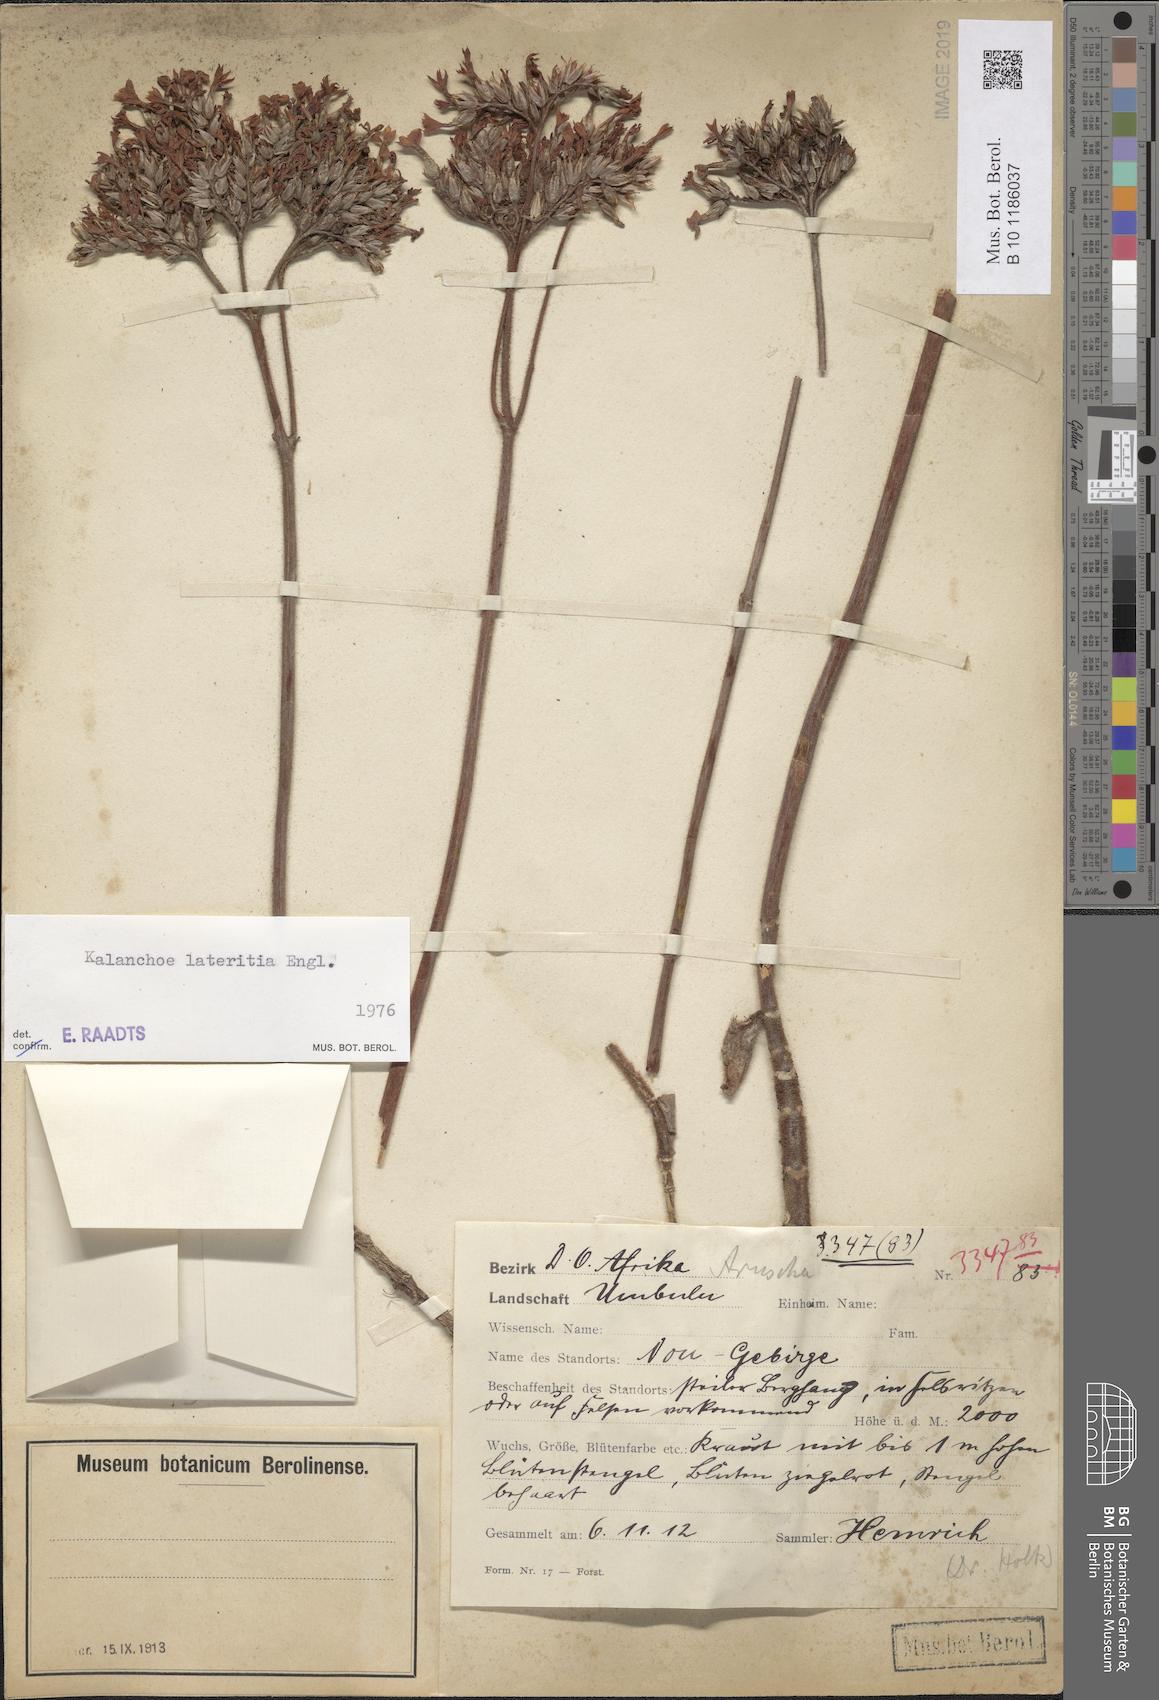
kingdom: Plantae
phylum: Tracheophyta
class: Magnoliopsida
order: Saxifragales
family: Crassulaceae
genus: Kalanchoe
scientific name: Kalanchoe lateritia
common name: Kalanchoe
